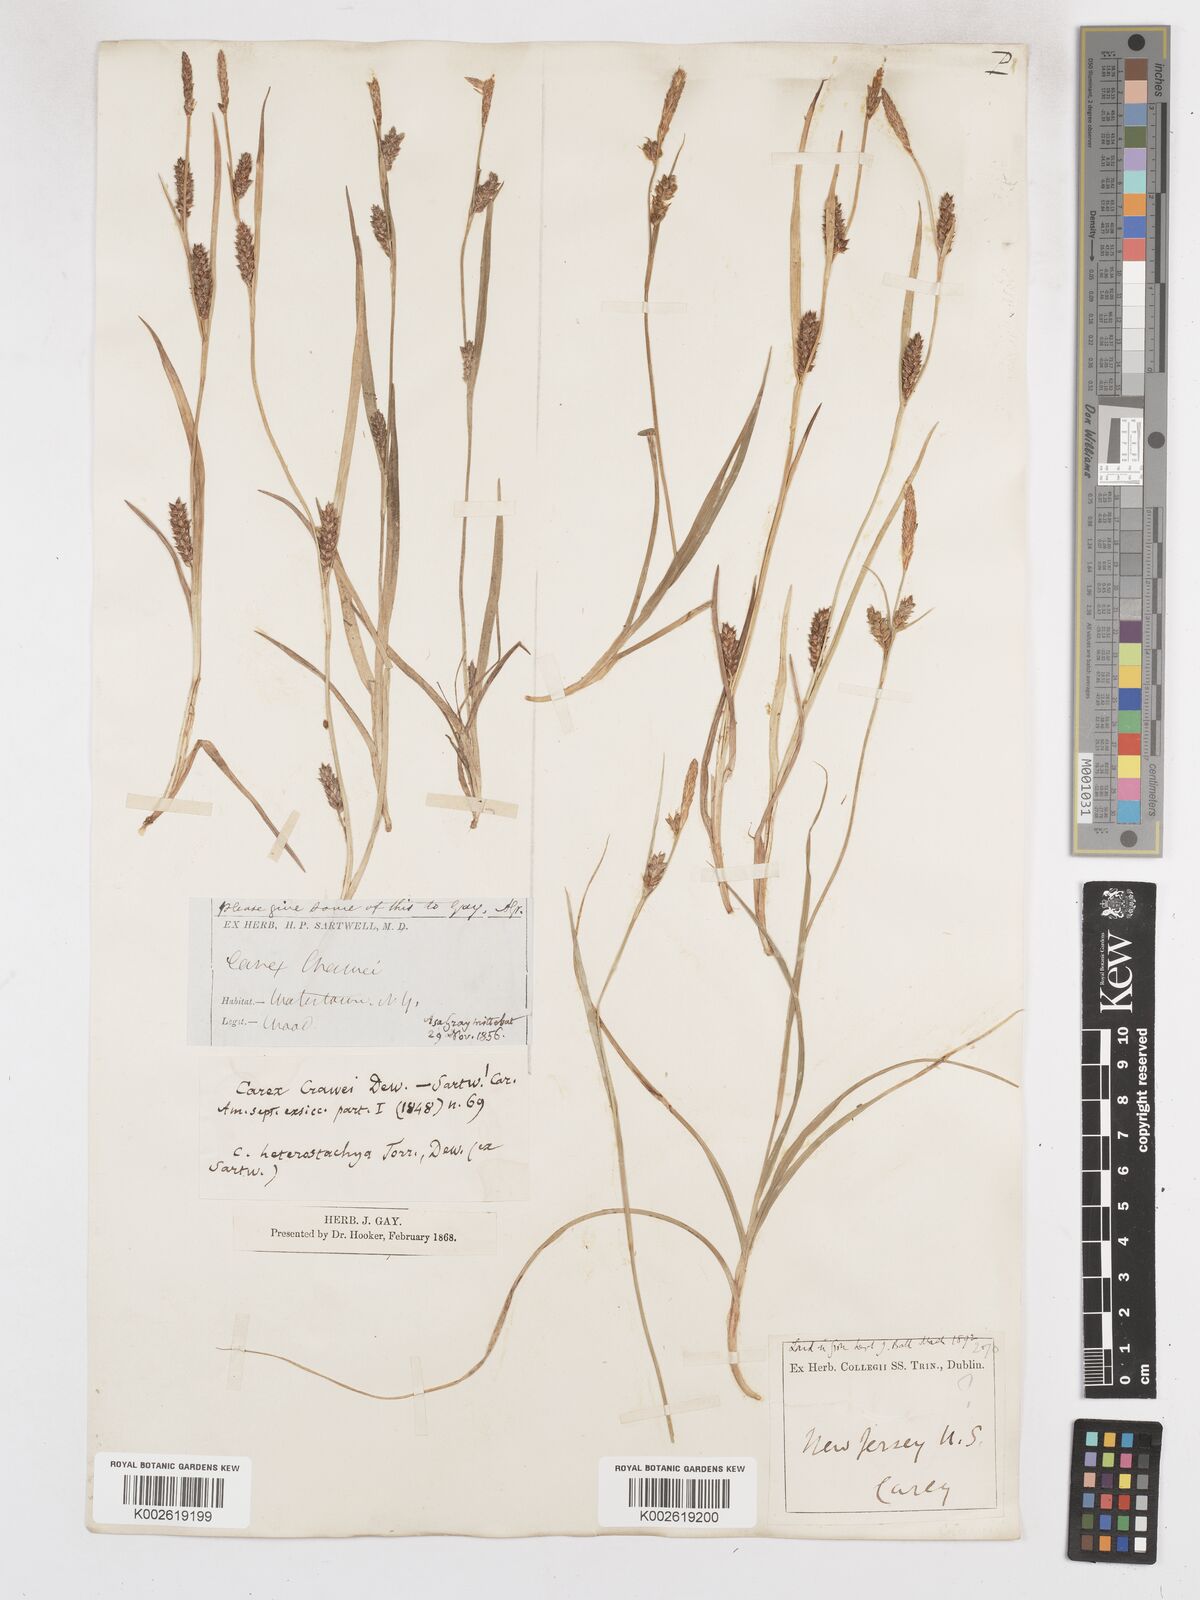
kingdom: Plantae
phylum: Tracheophyta
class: Liliopsida
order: Poales
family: Cyperaceae
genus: Carex
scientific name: Carex microdonta
